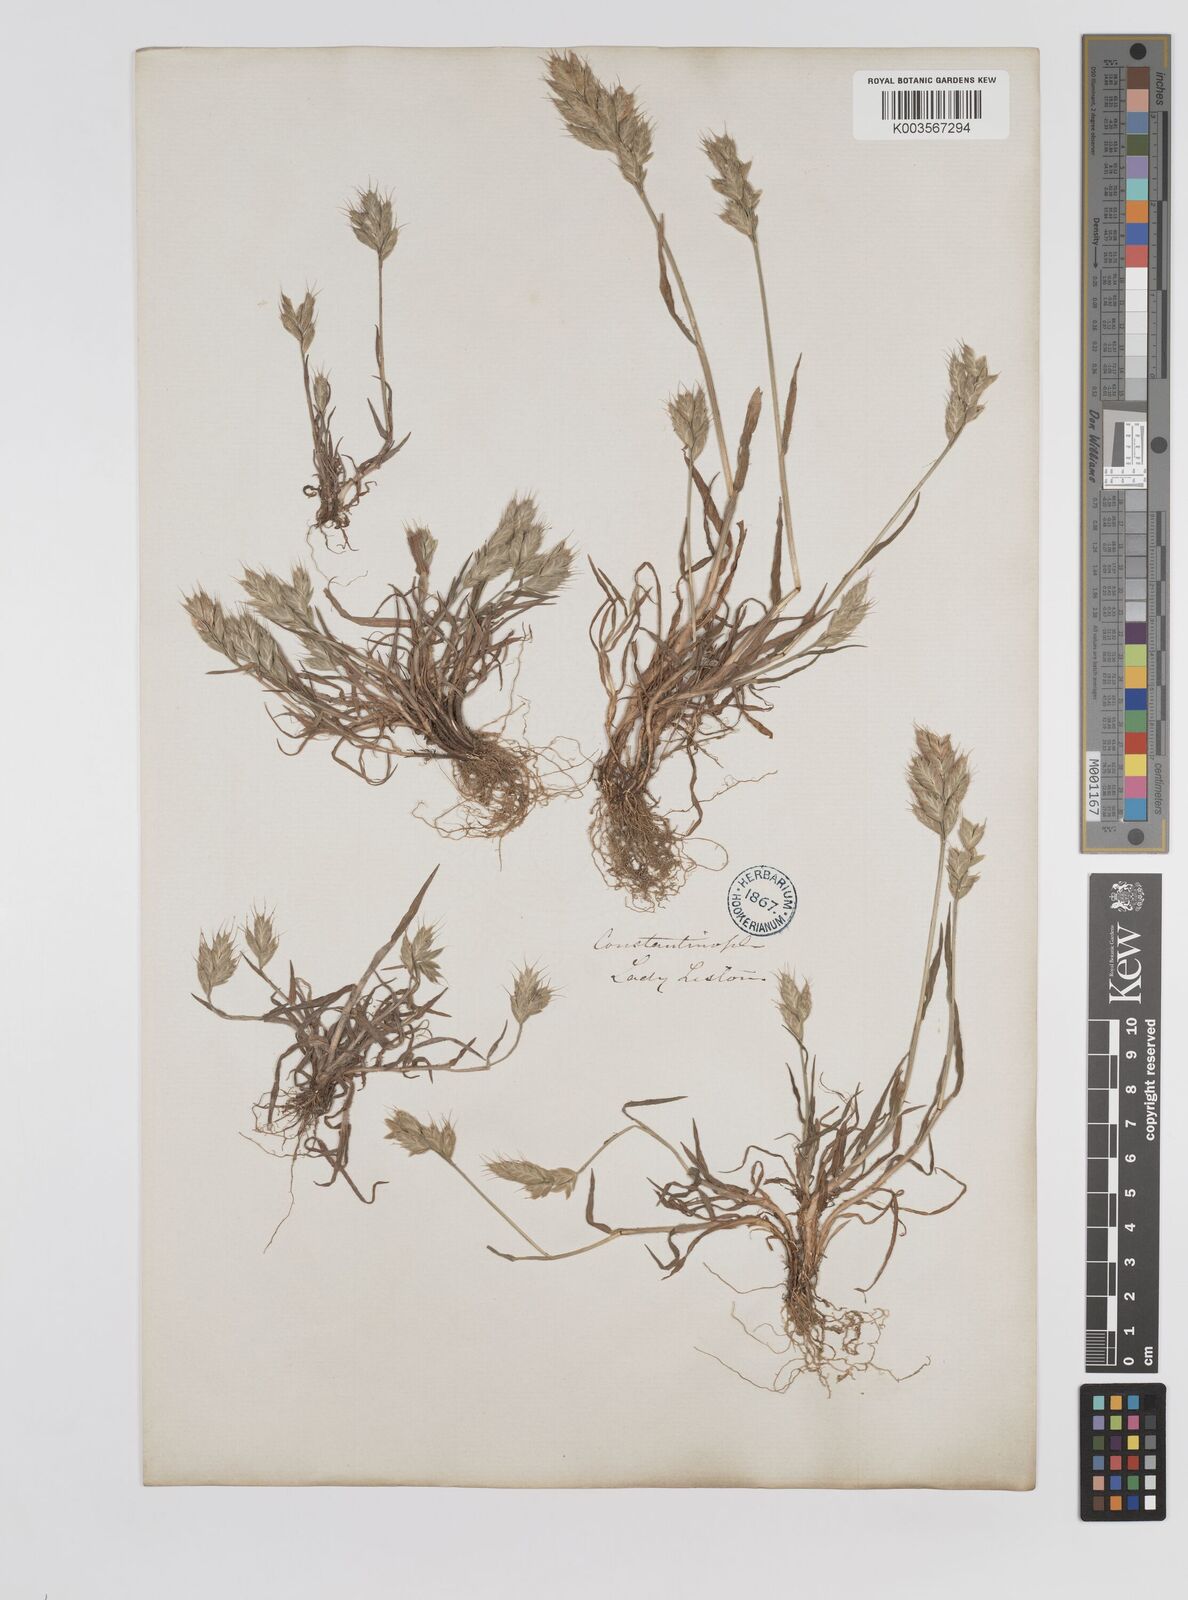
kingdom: Plantae
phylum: Tracheophyta
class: Liliopsida
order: Poales
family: Poaceae
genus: Bromus
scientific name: Bromus hordeaceus
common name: Soft brome
